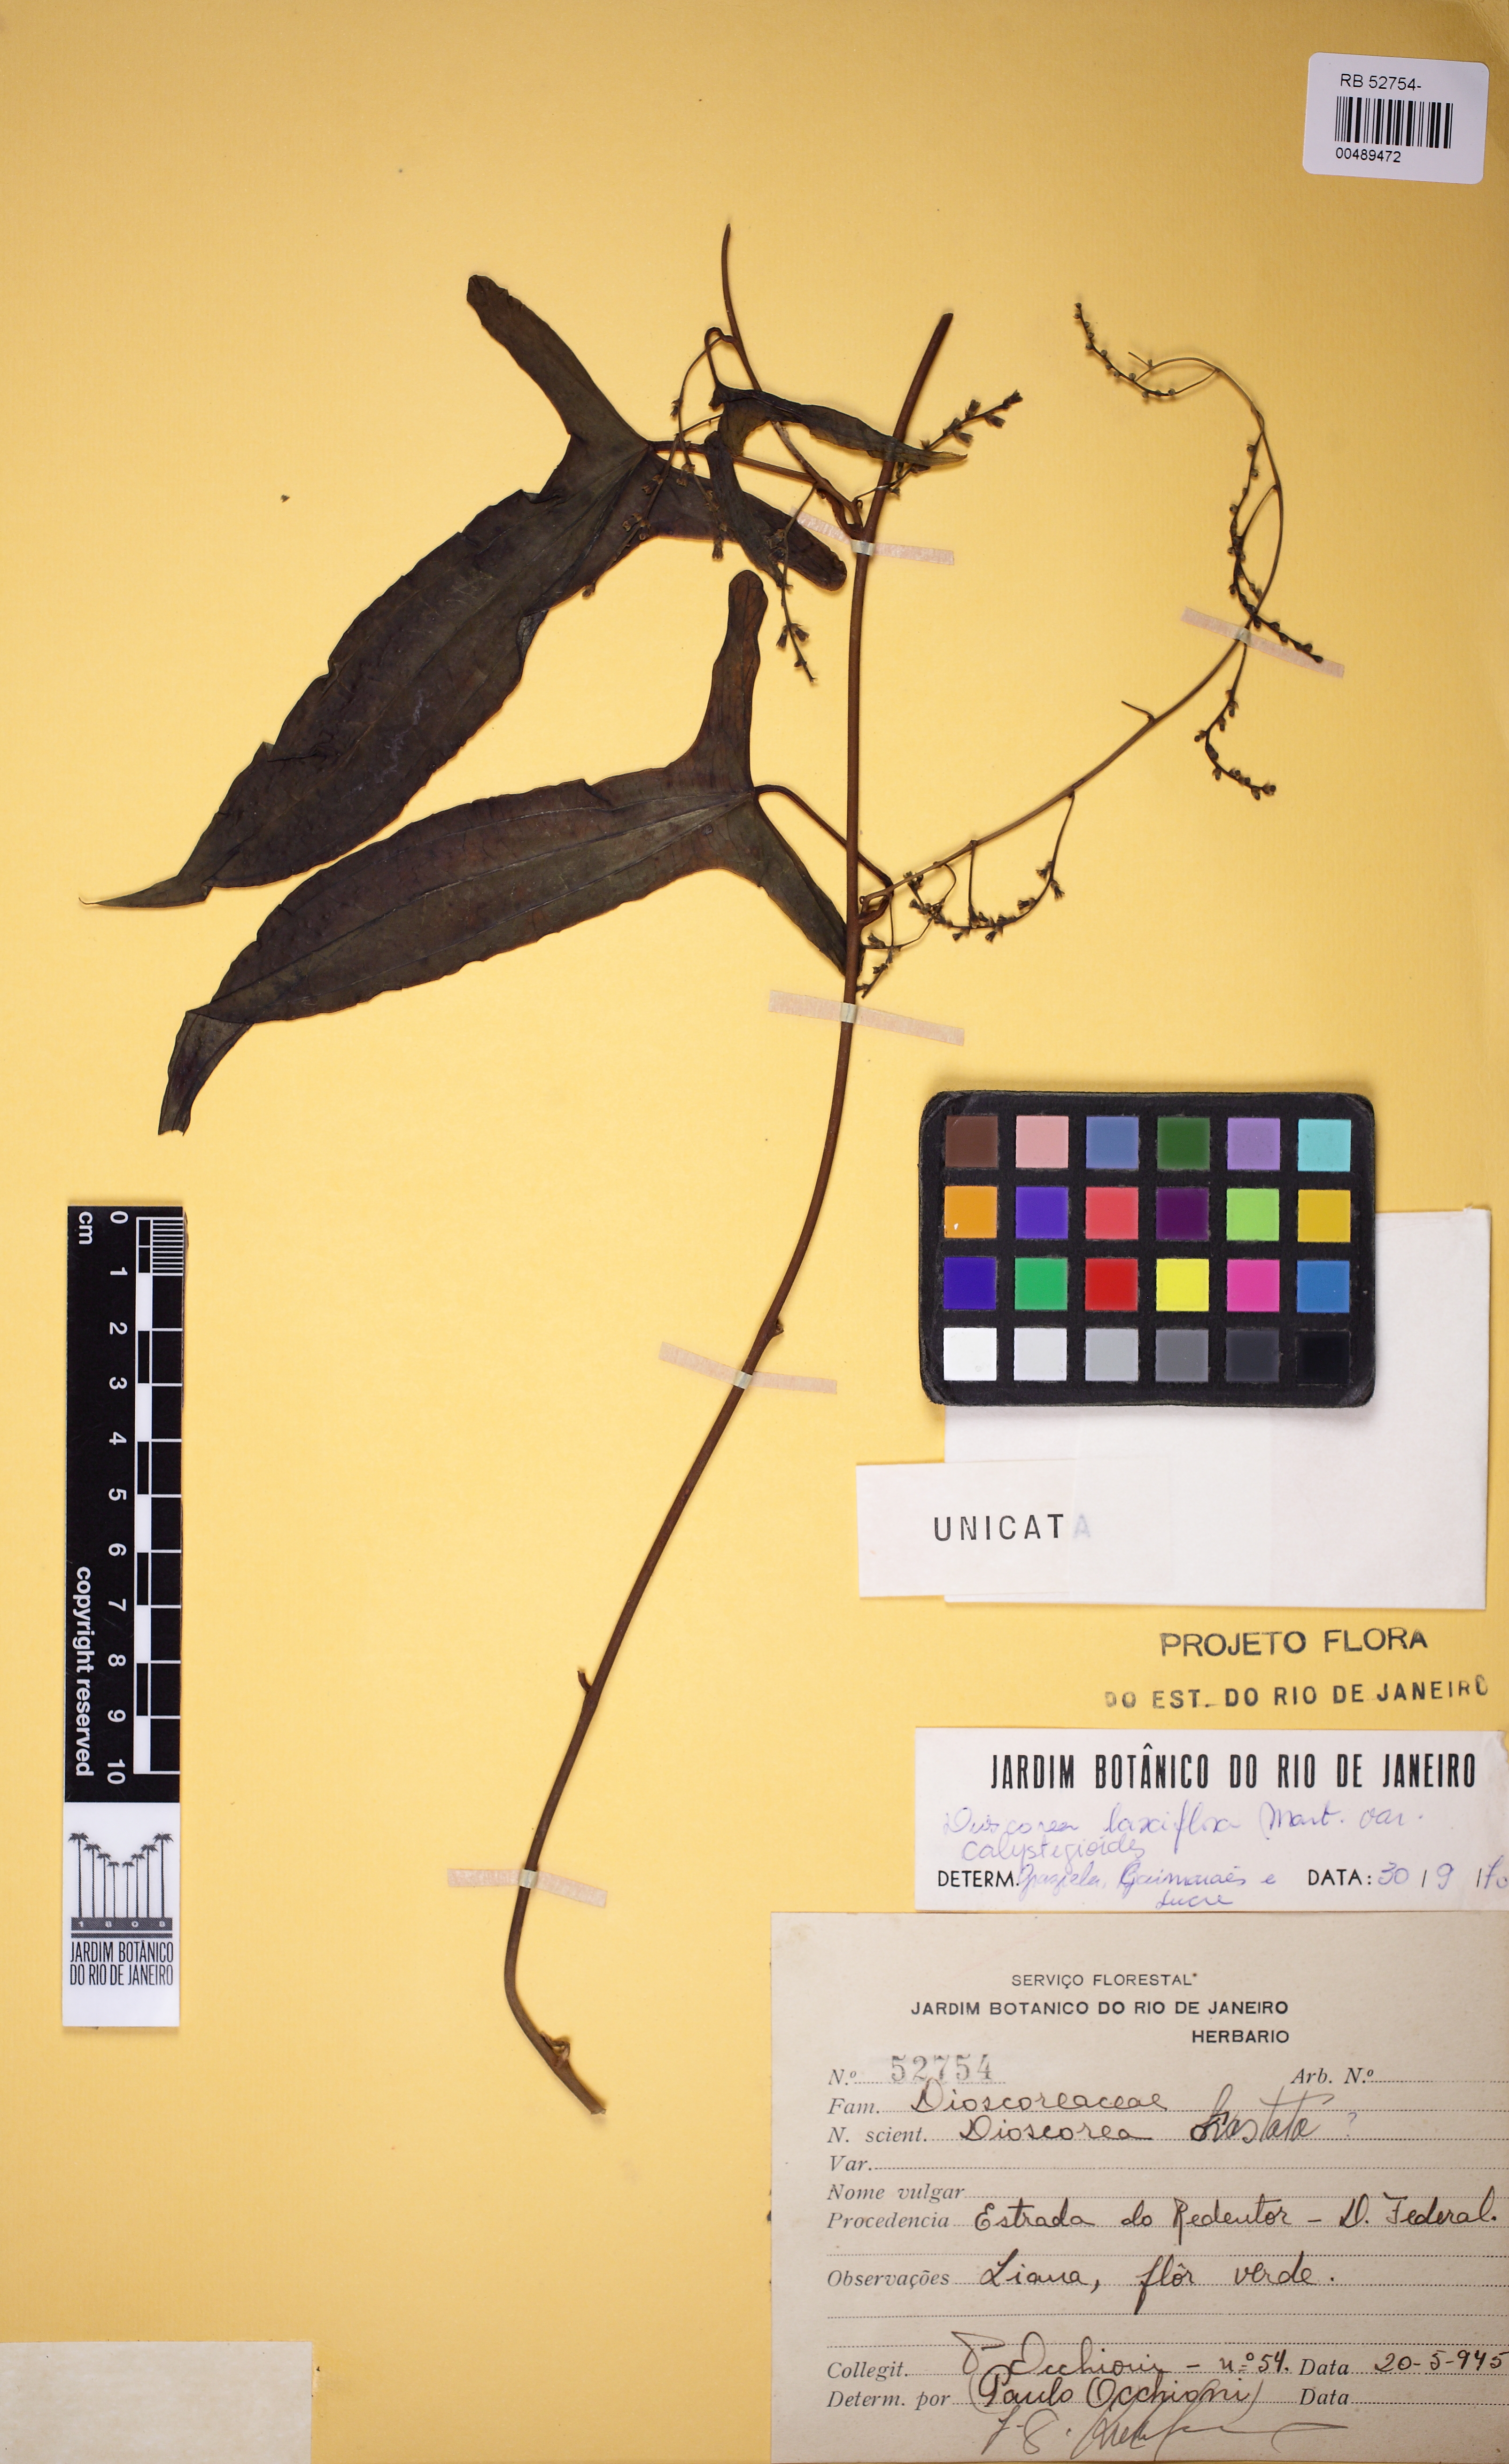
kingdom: Plantae
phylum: Tracheophyta
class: Liliopsida
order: Dioscoreales
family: Dioscoreaceae
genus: Dioscorea
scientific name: Dioscorea laxiflora
